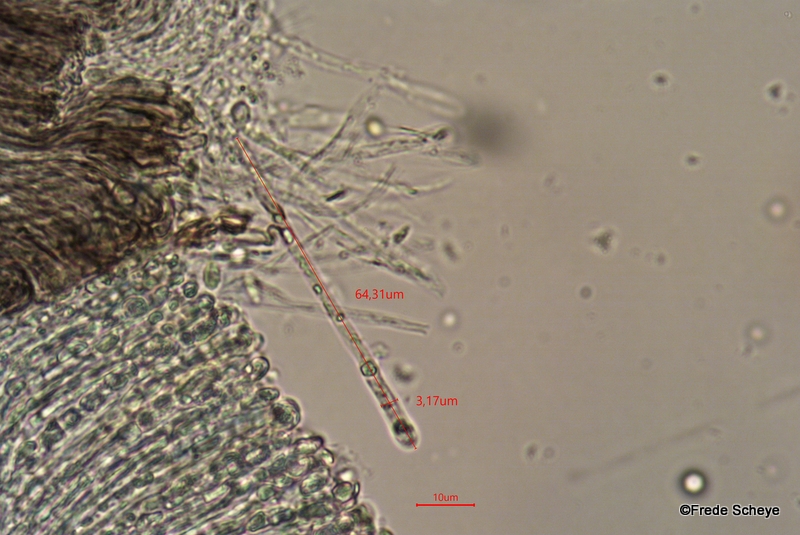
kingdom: Fungi
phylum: Ascomycota
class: Leotiomycetes
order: Helotiales
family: Mollisiaceae
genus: Mollisia
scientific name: Mollisia
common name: gråskive
